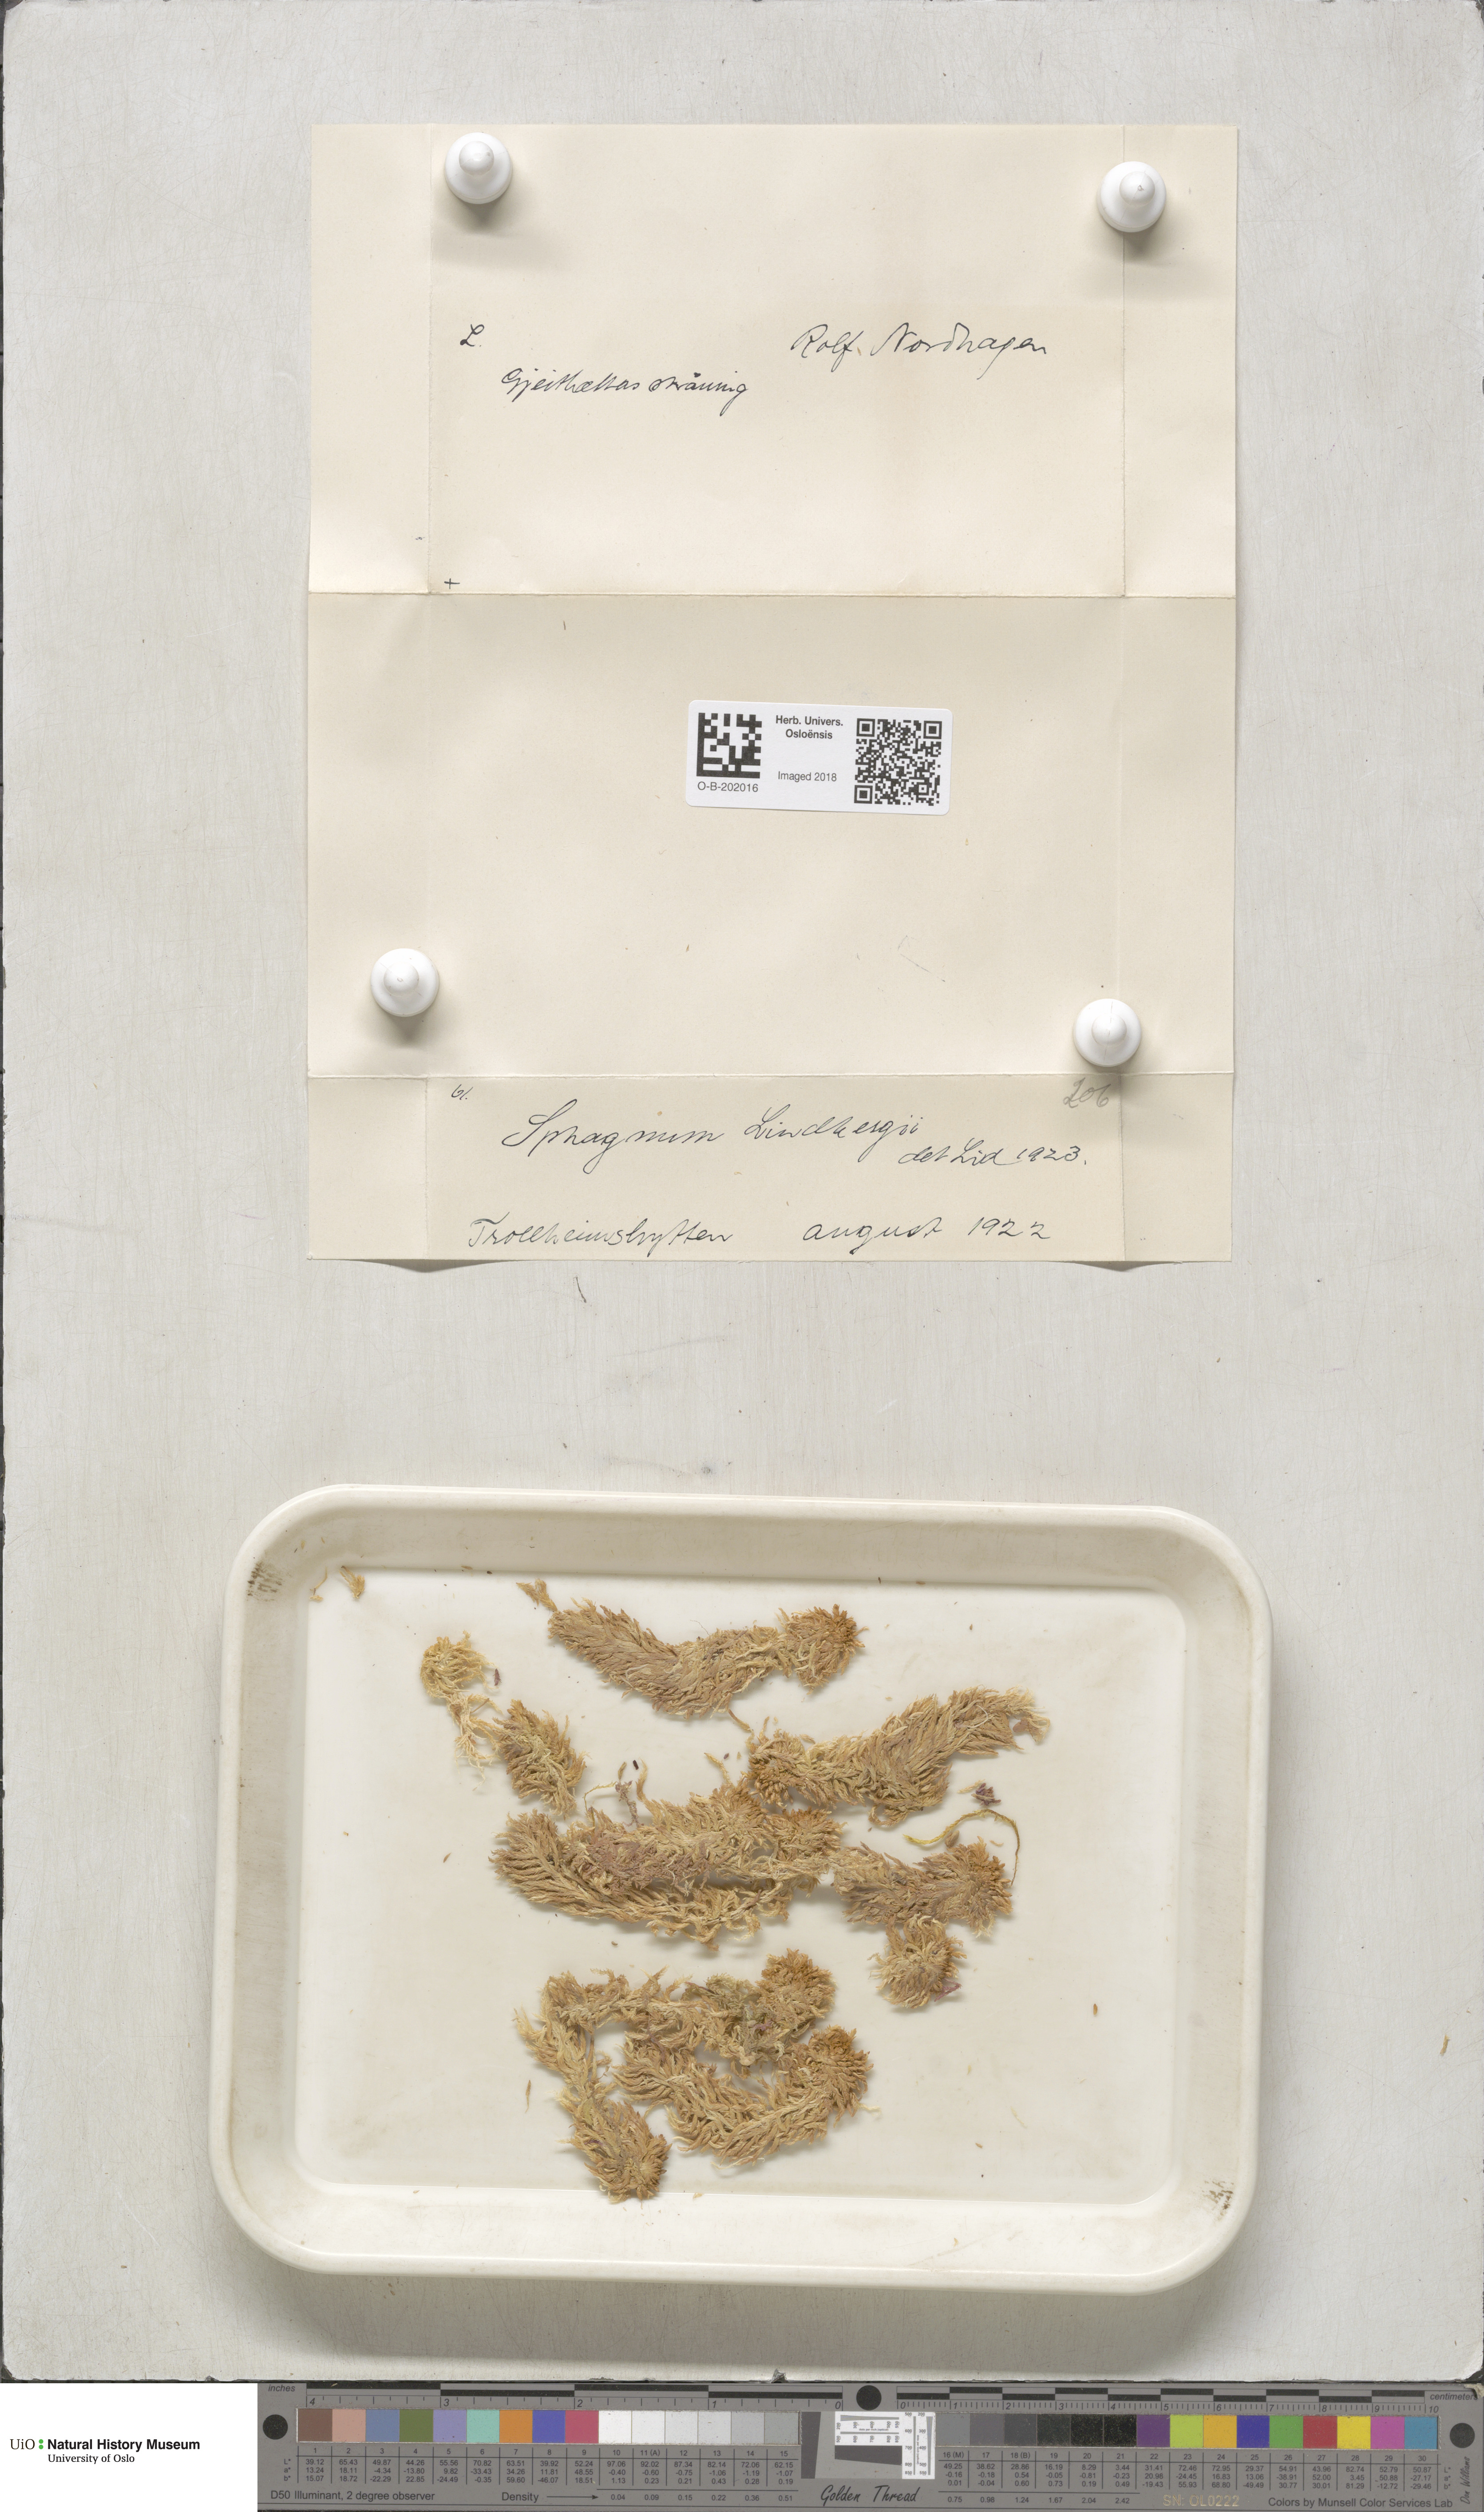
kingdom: Plantae
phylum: Bryophyta
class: Sphagnopsida
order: Sphagnales
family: Sphagnaceae
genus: Sphagnum
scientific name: Sphagnum lindbergii
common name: Lindberg's peat moss
